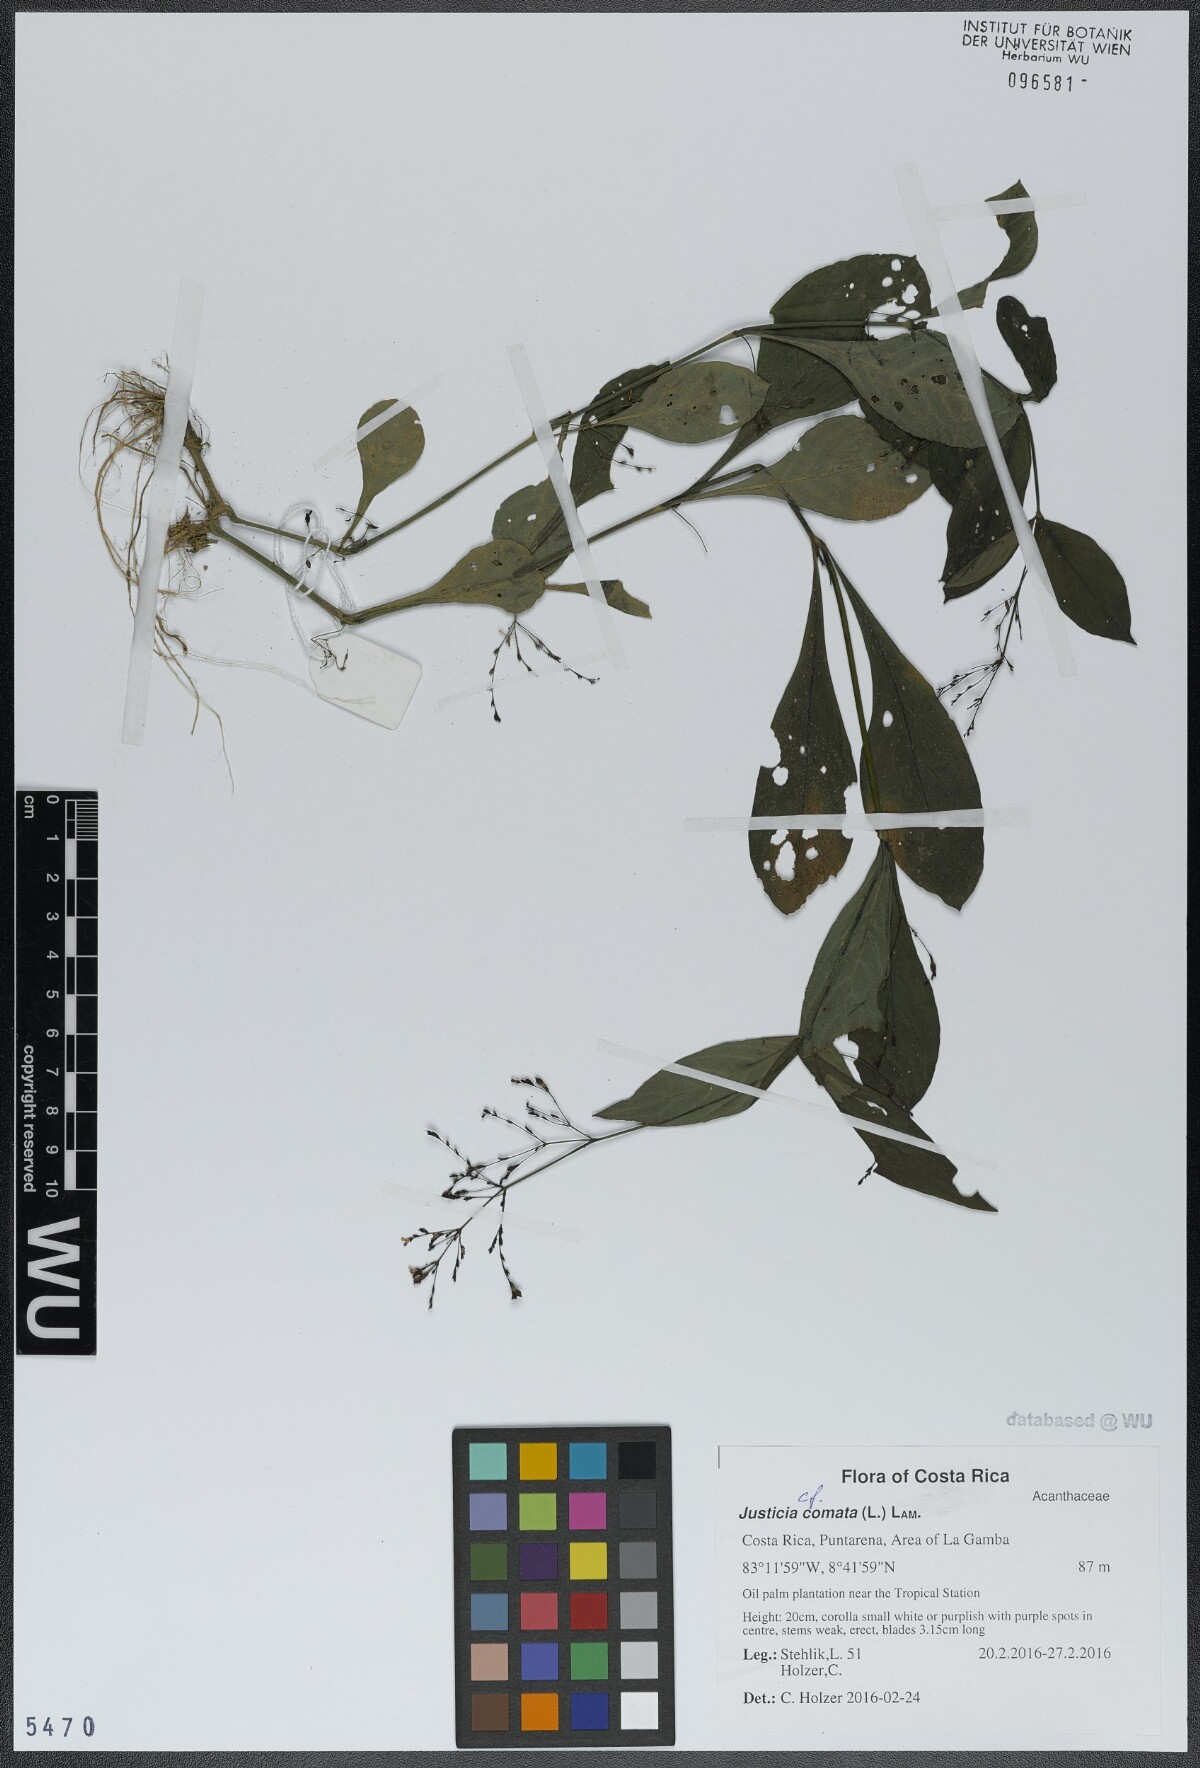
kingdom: Plantae
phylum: Tracheophyta
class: Magnoliopsida
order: Lamiales
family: Acanthaceae
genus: Dianthera
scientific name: Dianthera comata
